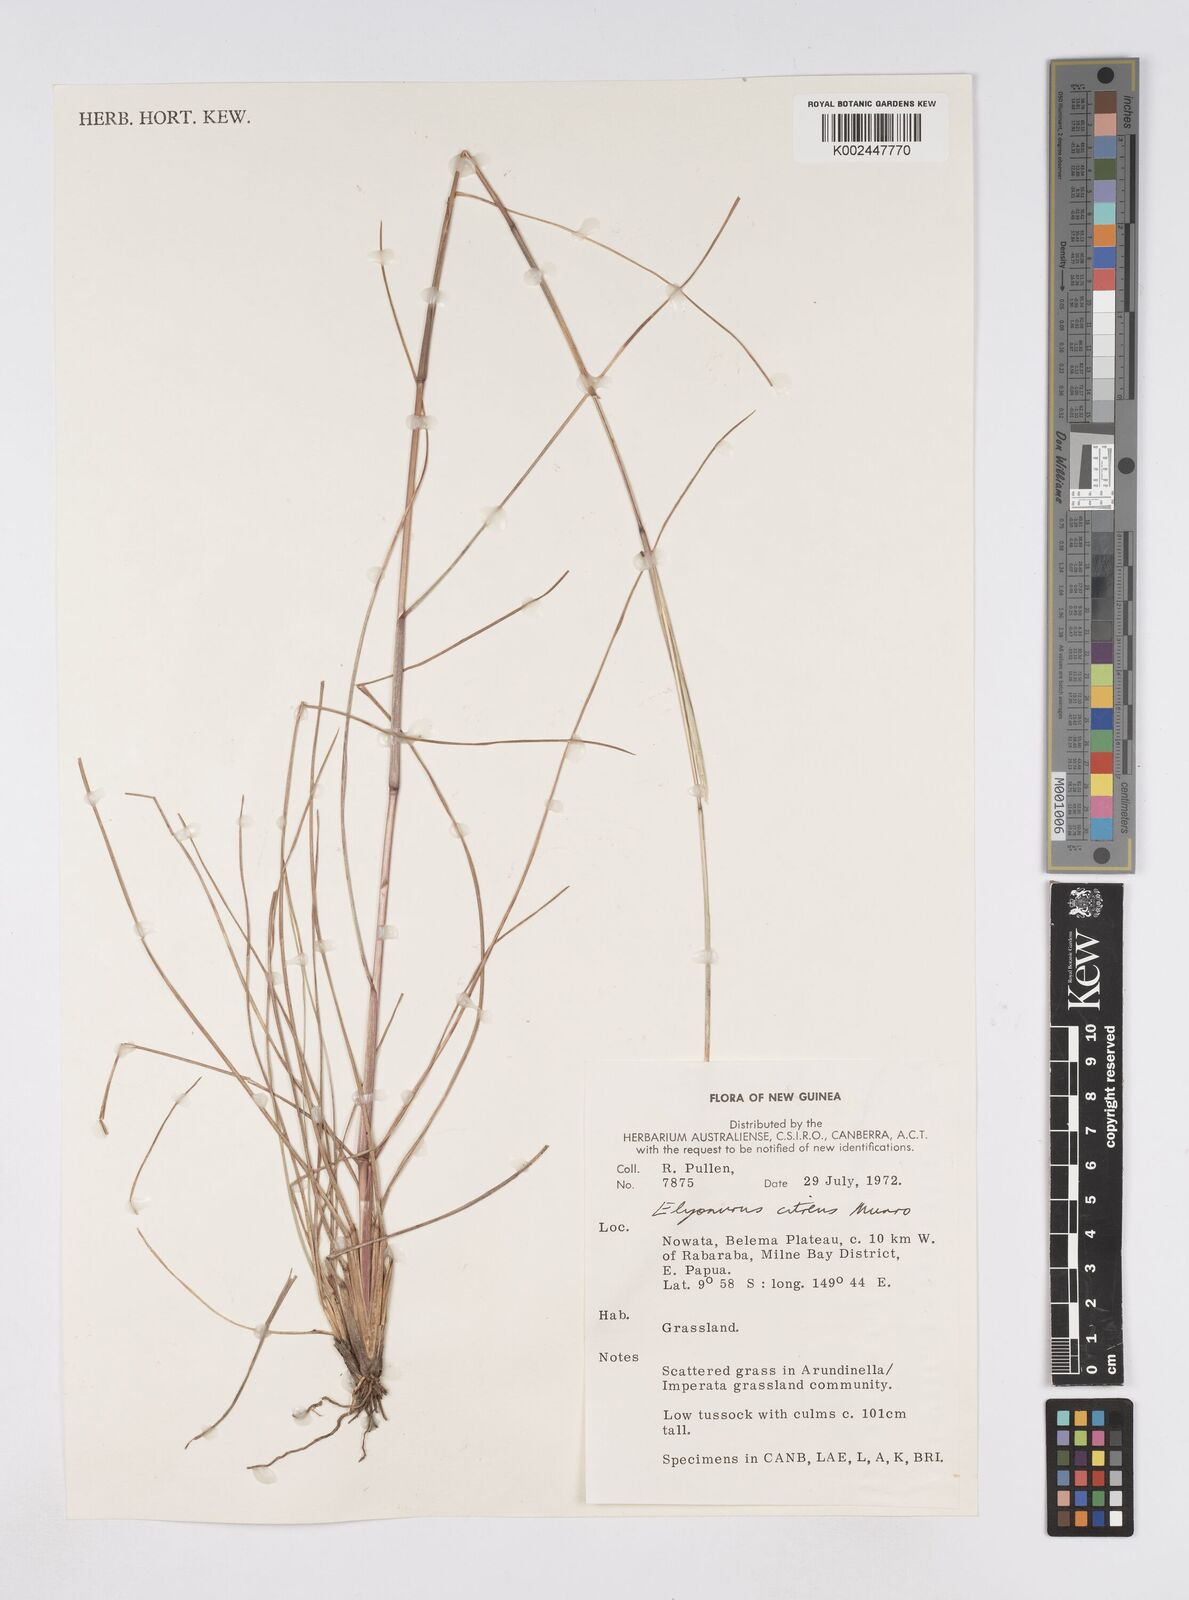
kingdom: Plantae
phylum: Tracheophyta
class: Liliopsida
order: Poales
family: Poaceae
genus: Elionurus
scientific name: Elionurus citreus
